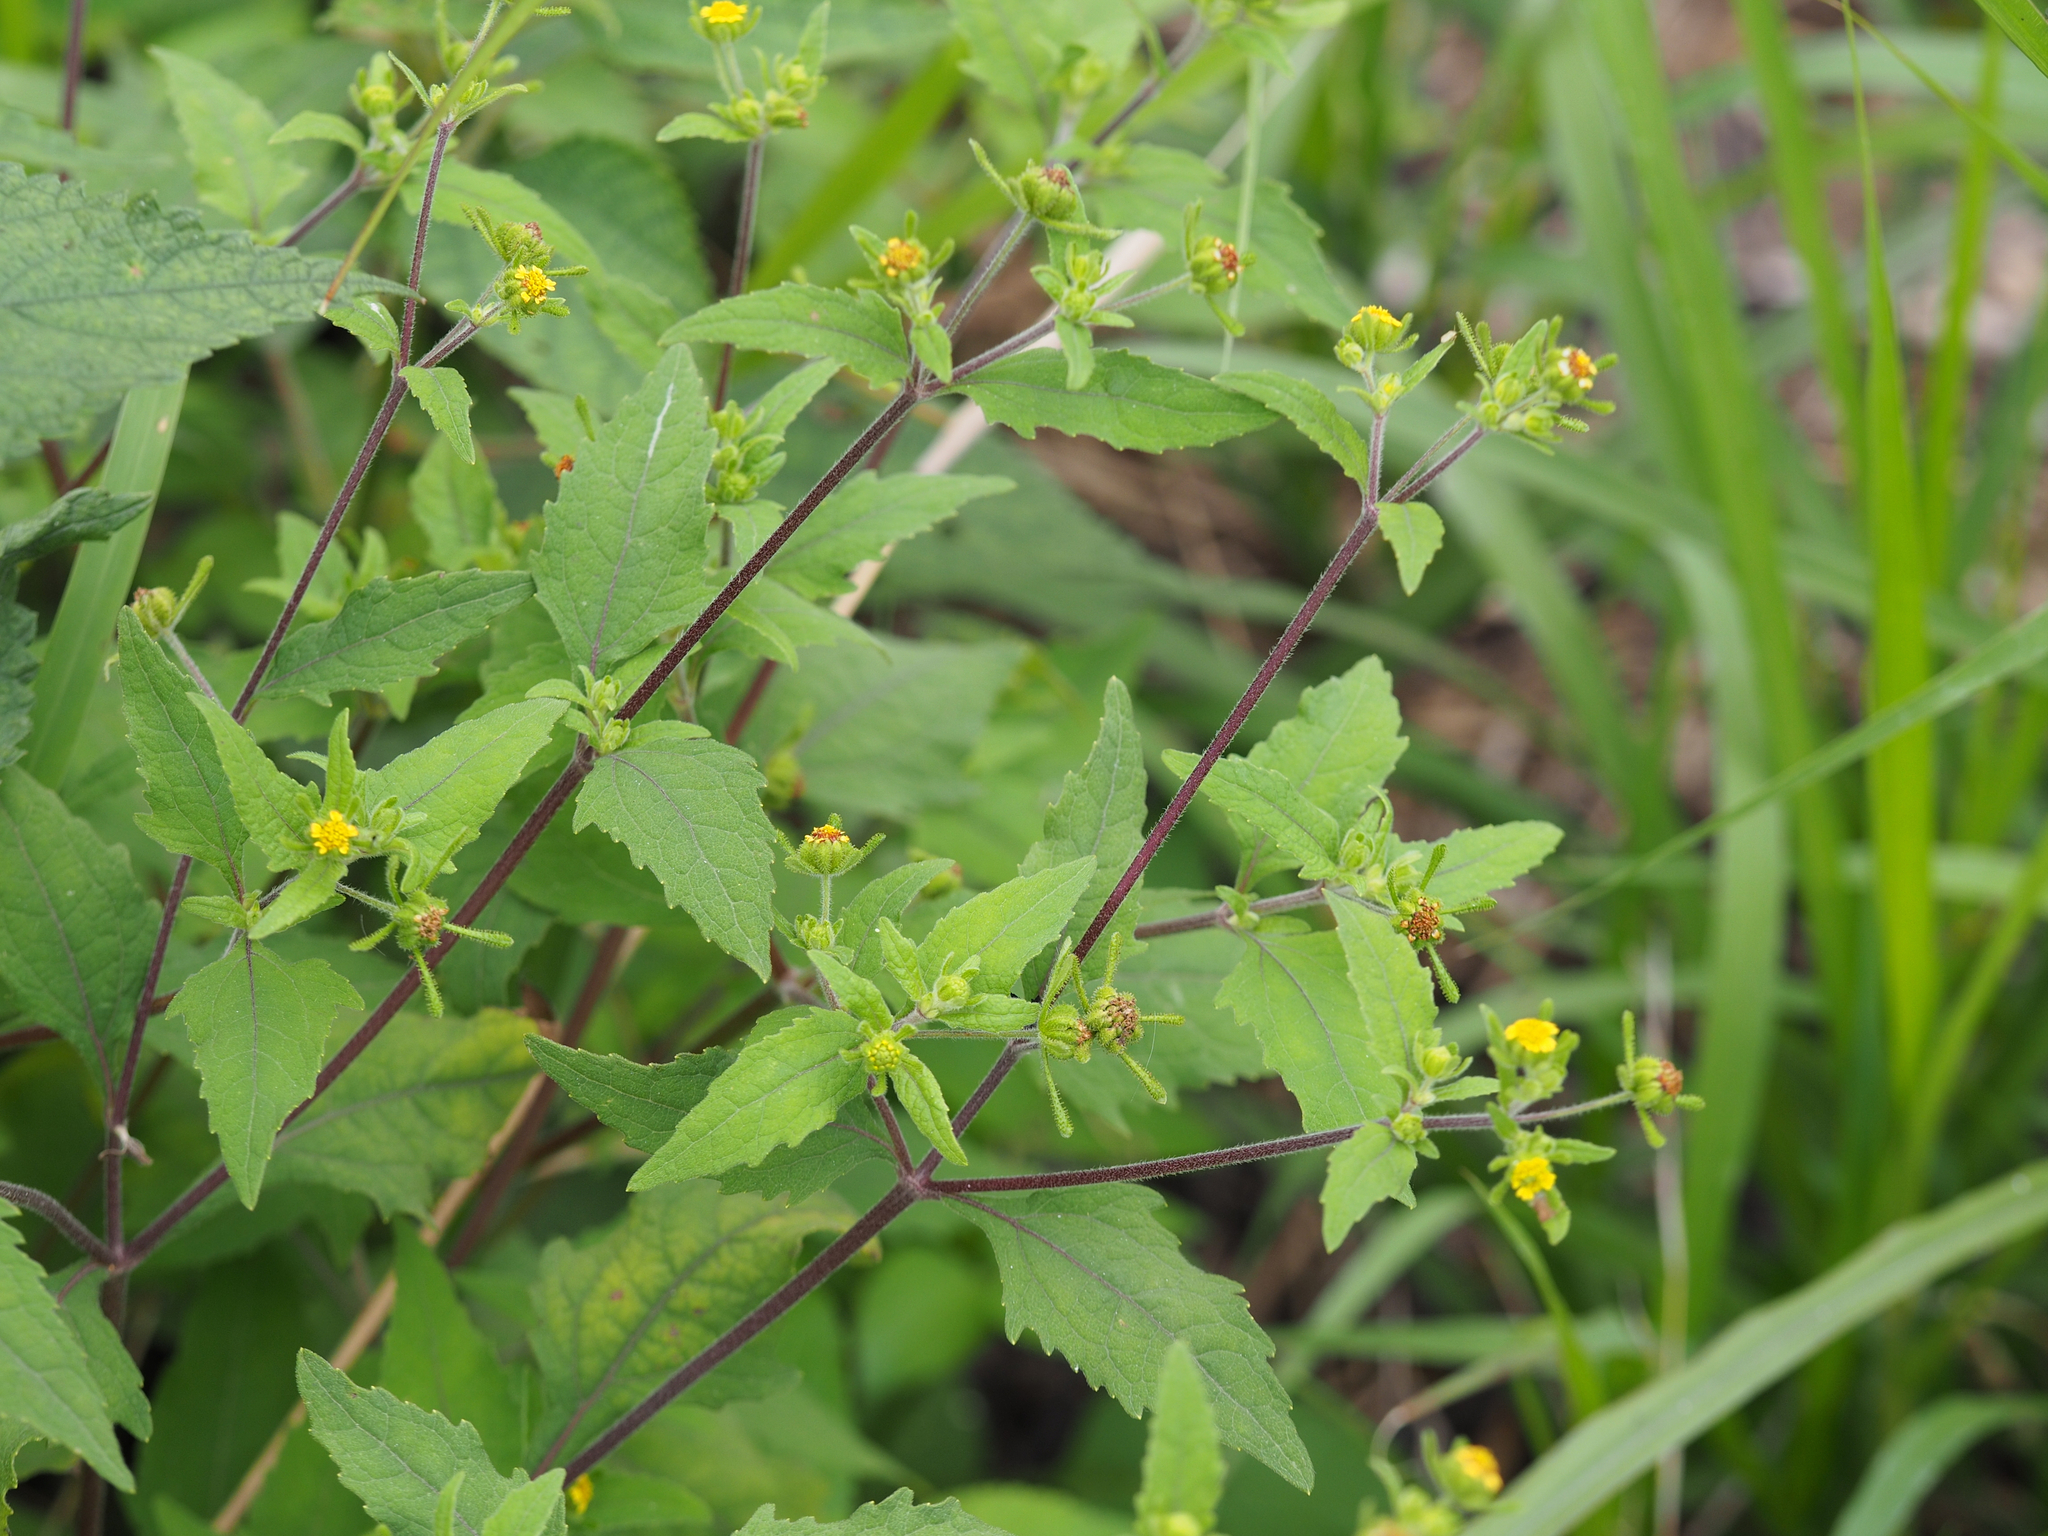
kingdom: Plantae
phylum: Tracheophyta
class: Magnoliopsida
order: Asterales
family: Asteraceae
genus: Sigesbeckia
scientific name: Sigesbeckia orientalis
